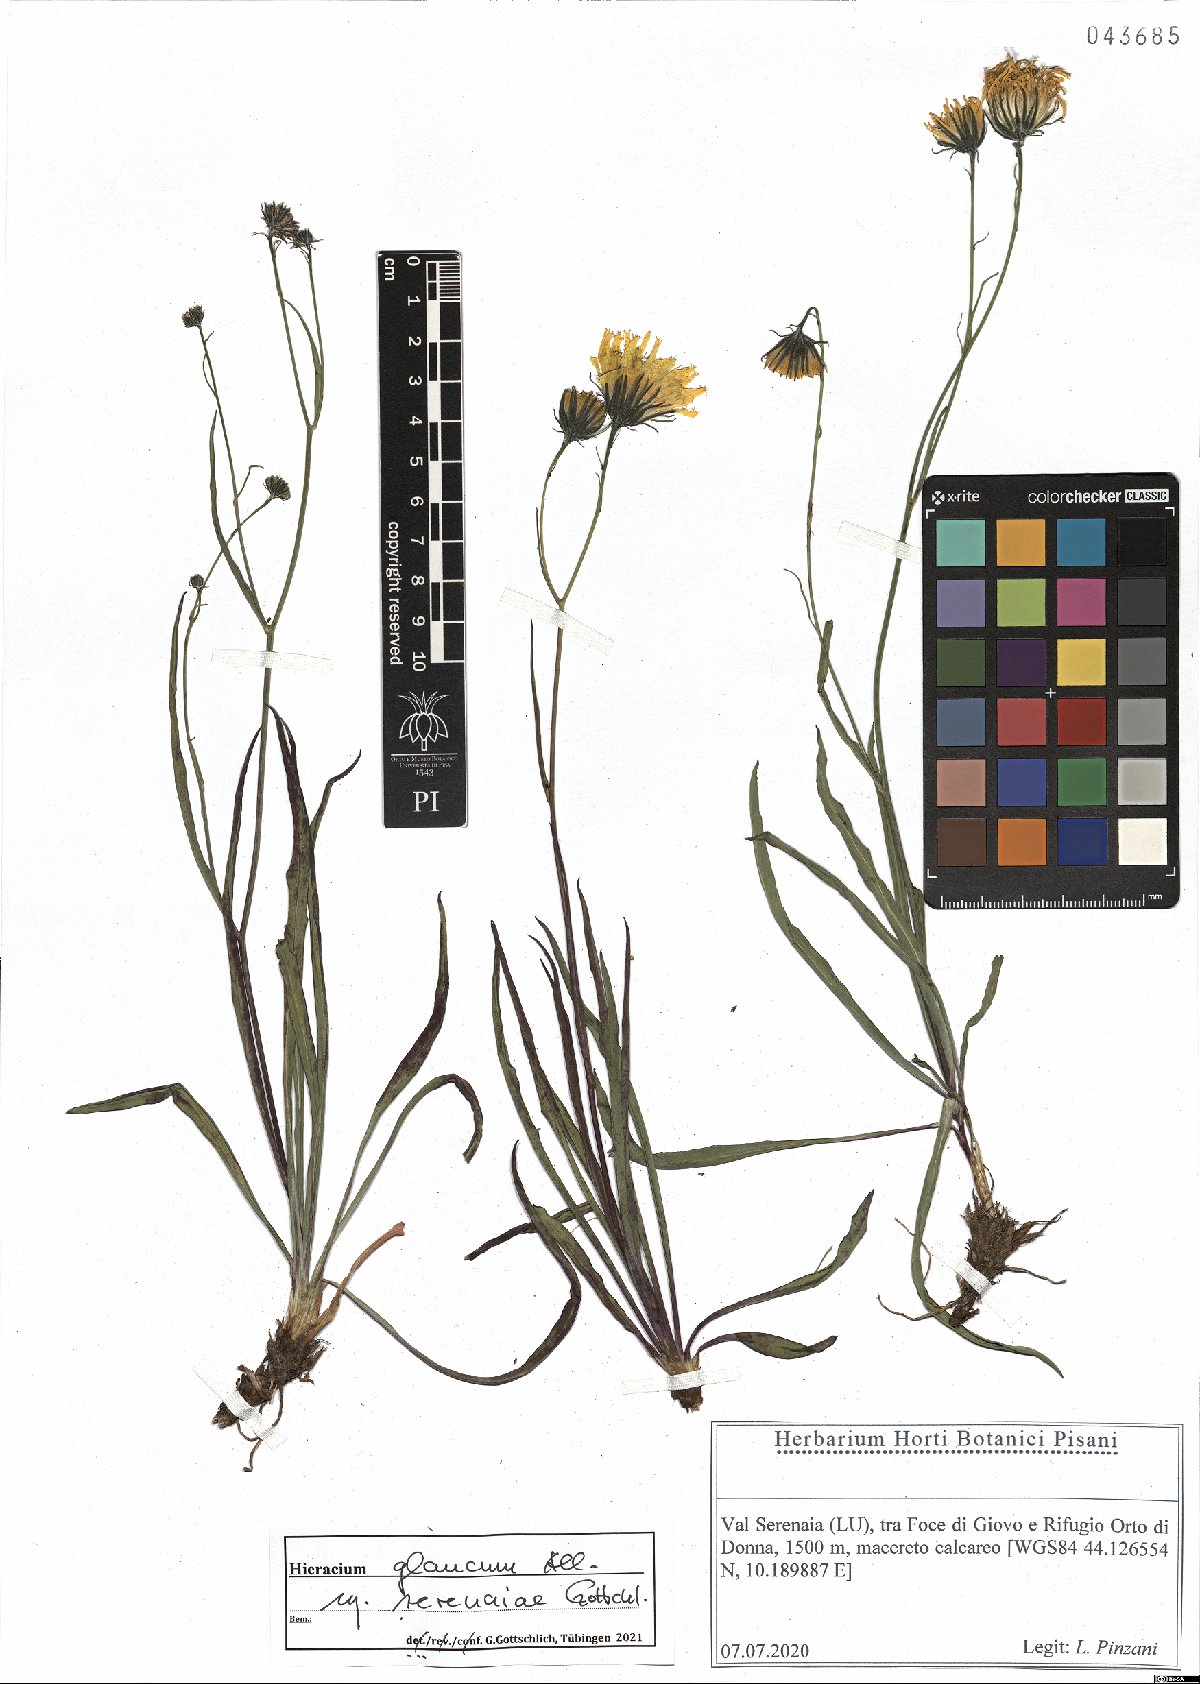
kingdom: Plantae
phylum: Tracheophyta
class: Magnoliopsida
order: Asterales
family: Asteraceae
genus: Hieracium
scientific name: Hieracium glaucum
